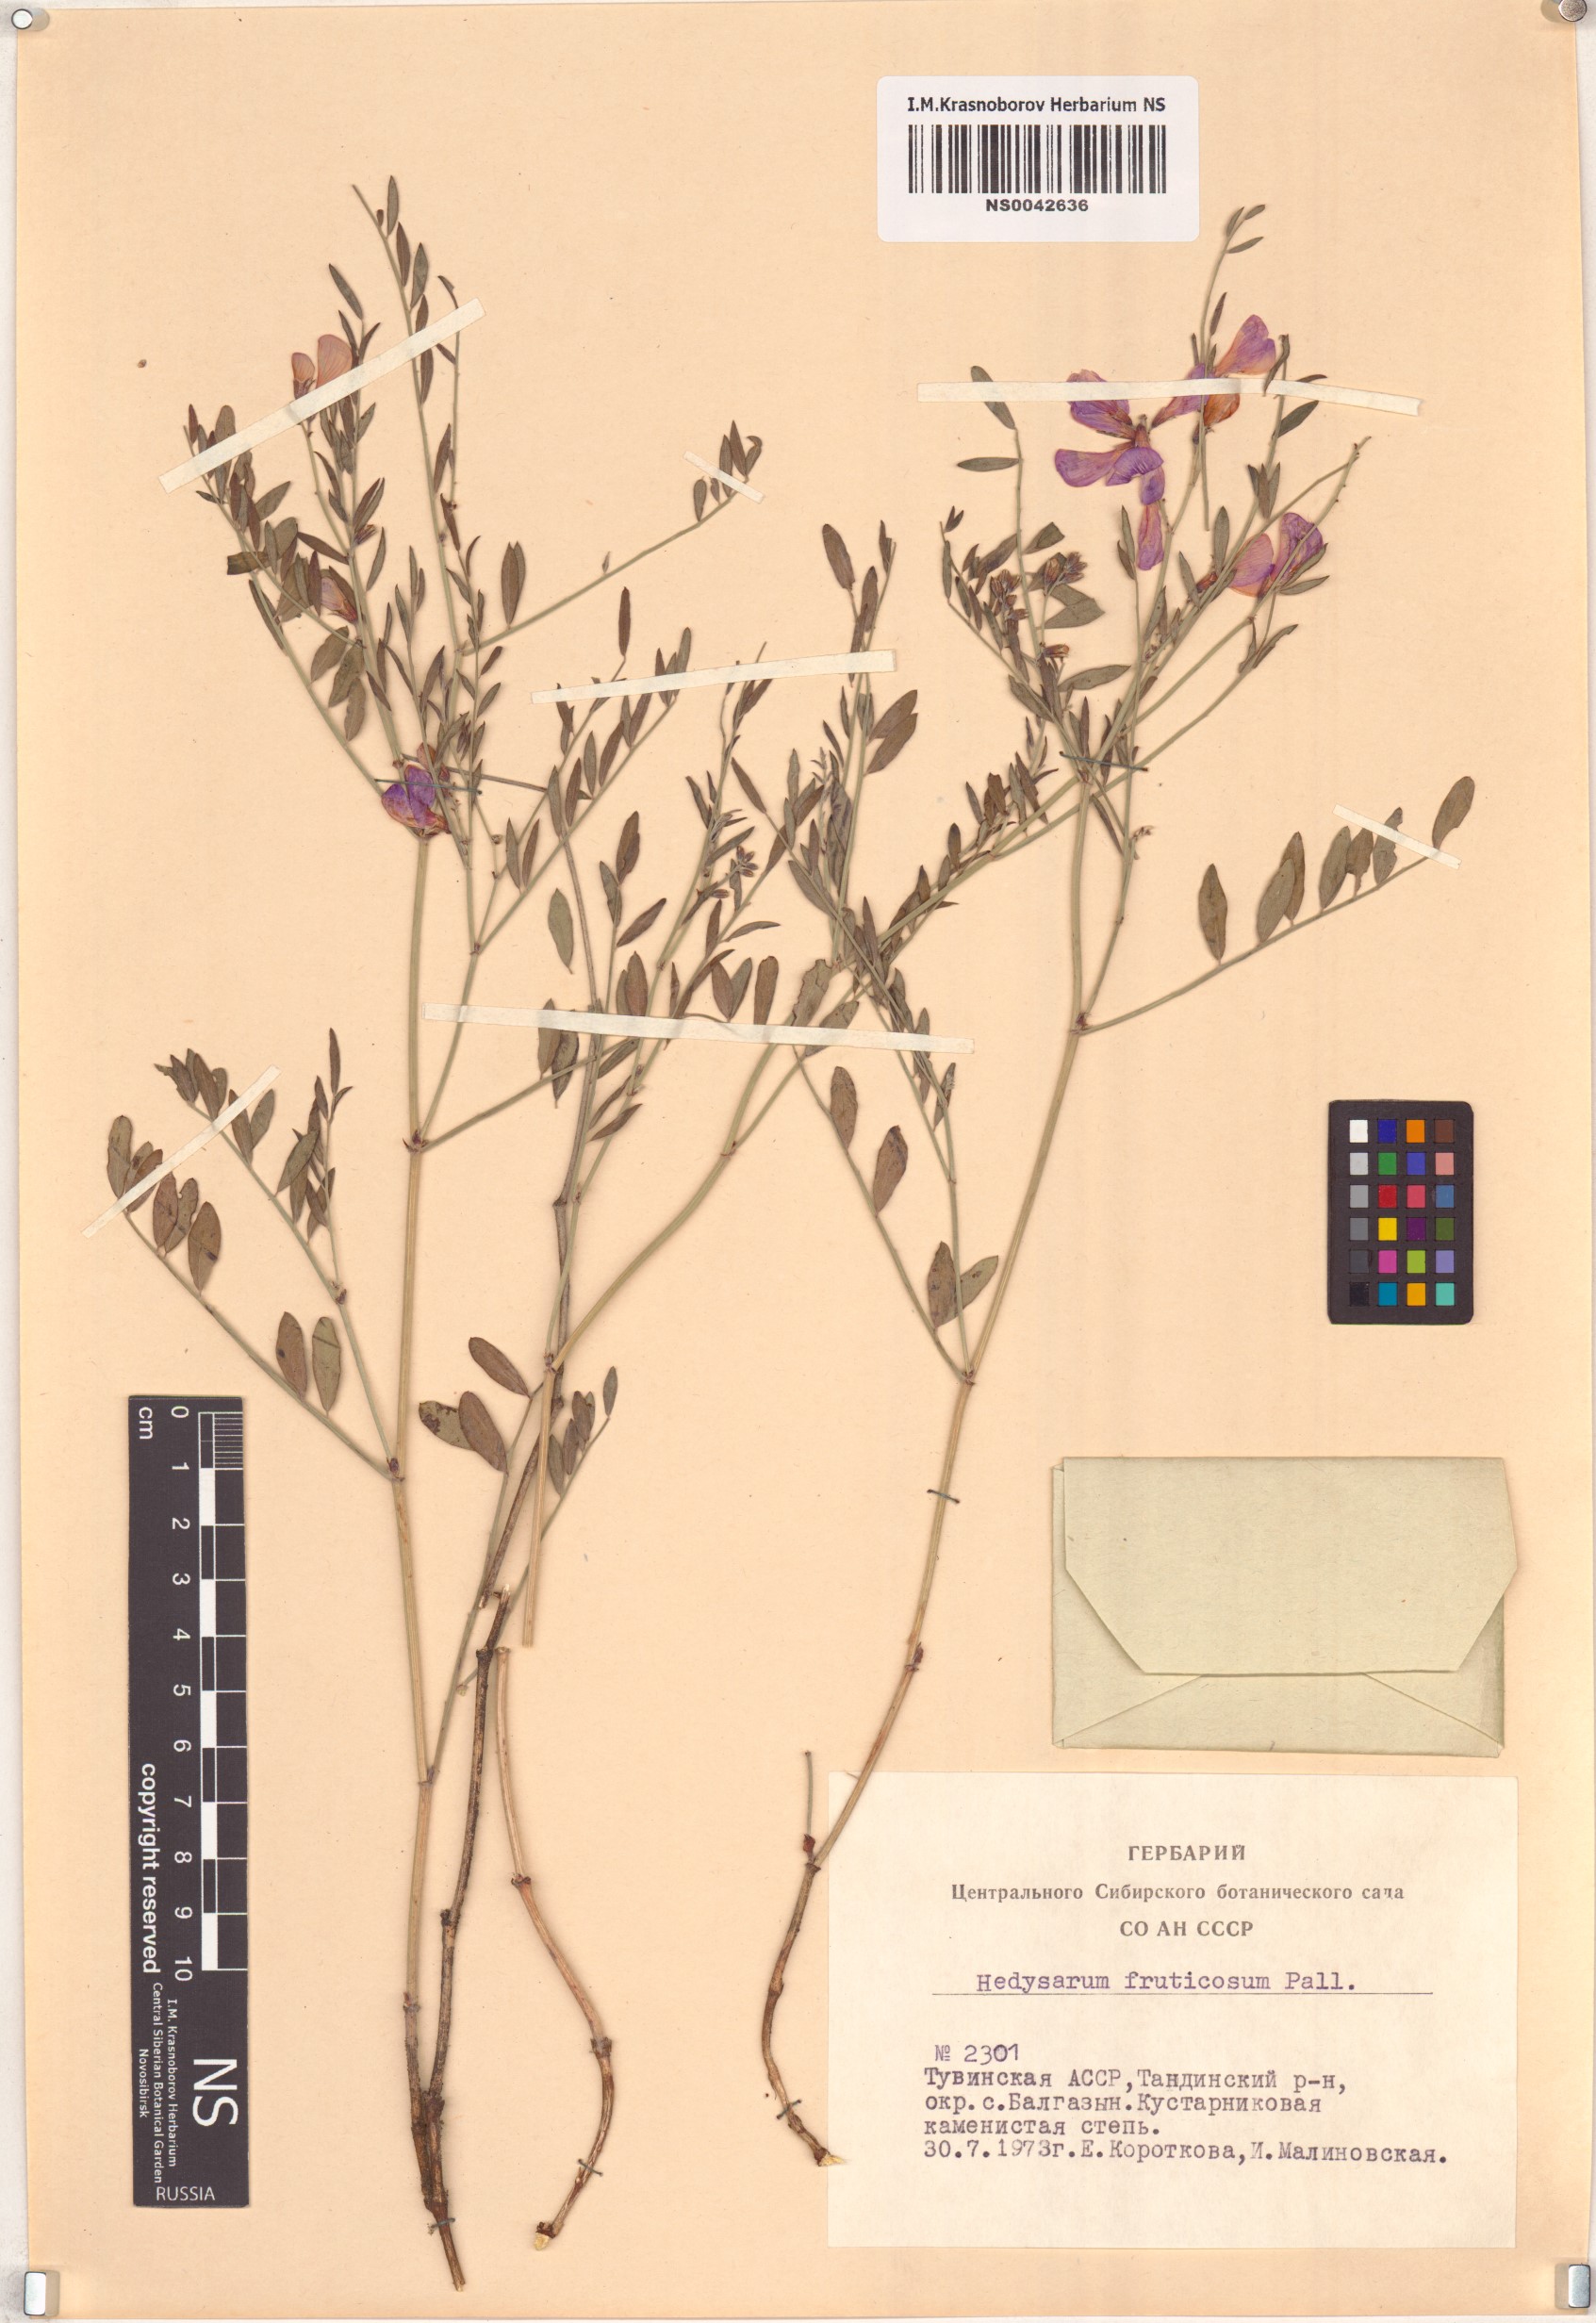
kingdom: Plantae
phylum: Tracheophyta
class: Magnoliopsida
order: Fabales
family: Fabaceae
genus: Corethrodendron
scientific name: Corethrodendron fruticosum
